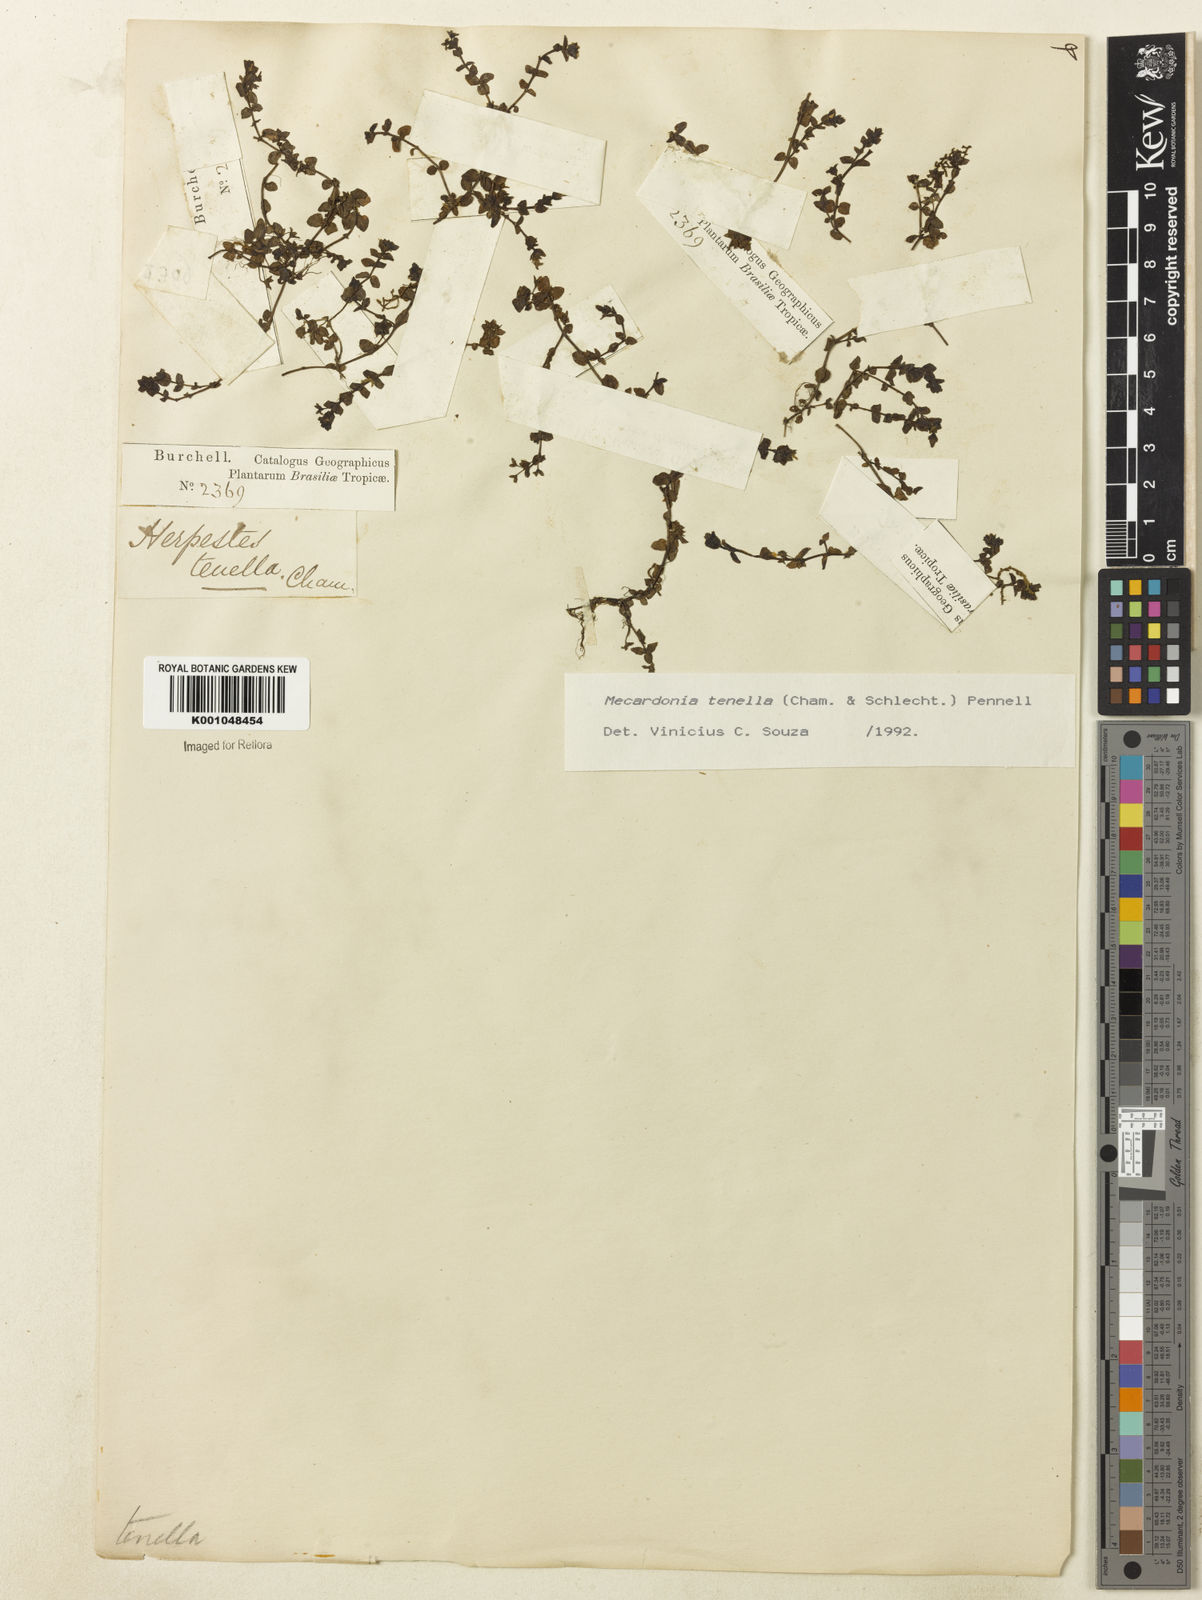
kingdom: Plantae
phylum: Tracheophyta
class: Magnoliopsida
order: Lamiales
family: Plantaginaceae
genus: Mecardonia
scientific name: Mecardonia procumbens
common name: Baby jump-up
